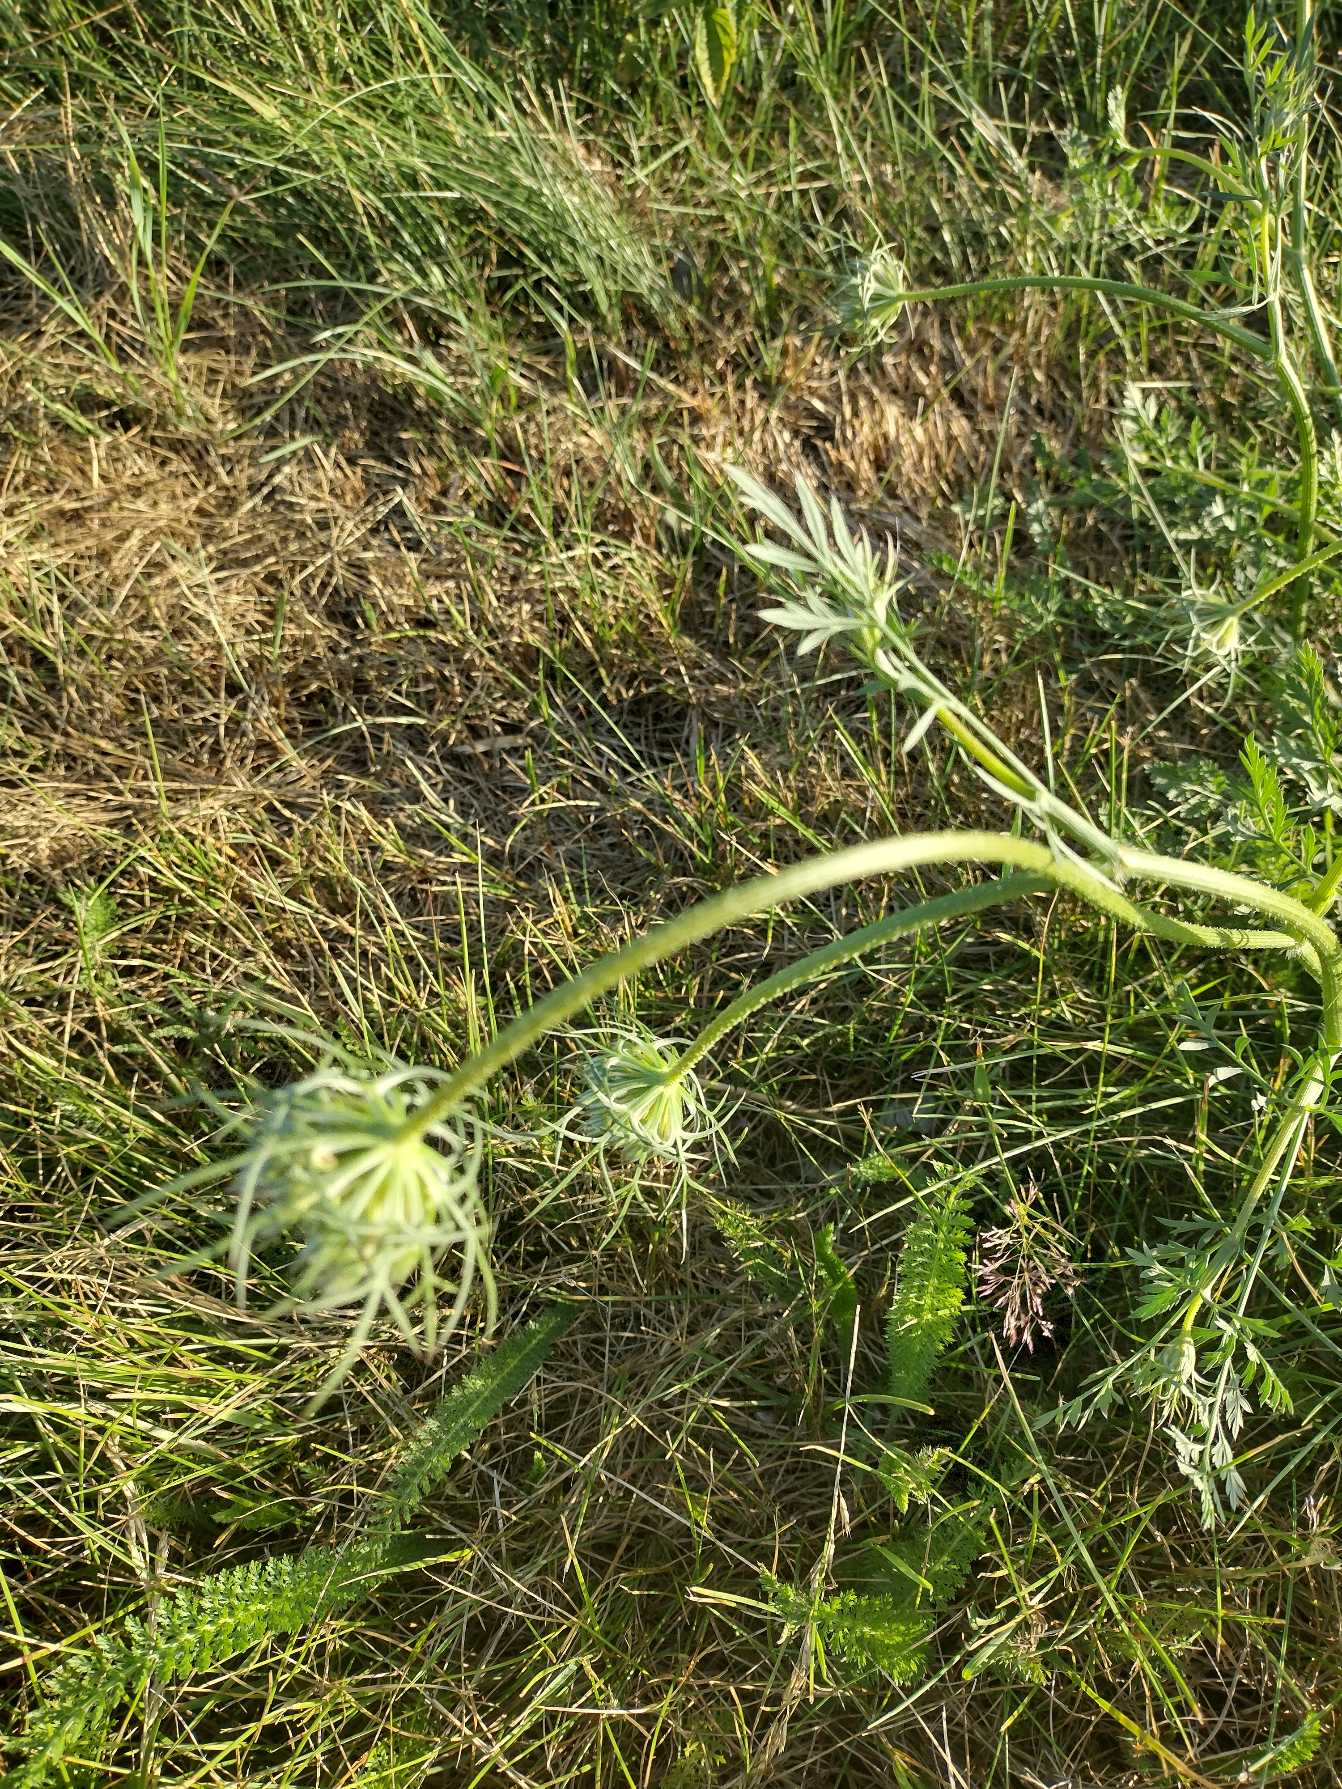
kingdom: Plantae
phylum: Tracheophyta
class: Magnoliopsida
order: Apiales
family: Apiaceae
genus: Daucus
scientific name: Daucus carota
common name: Gulerod
